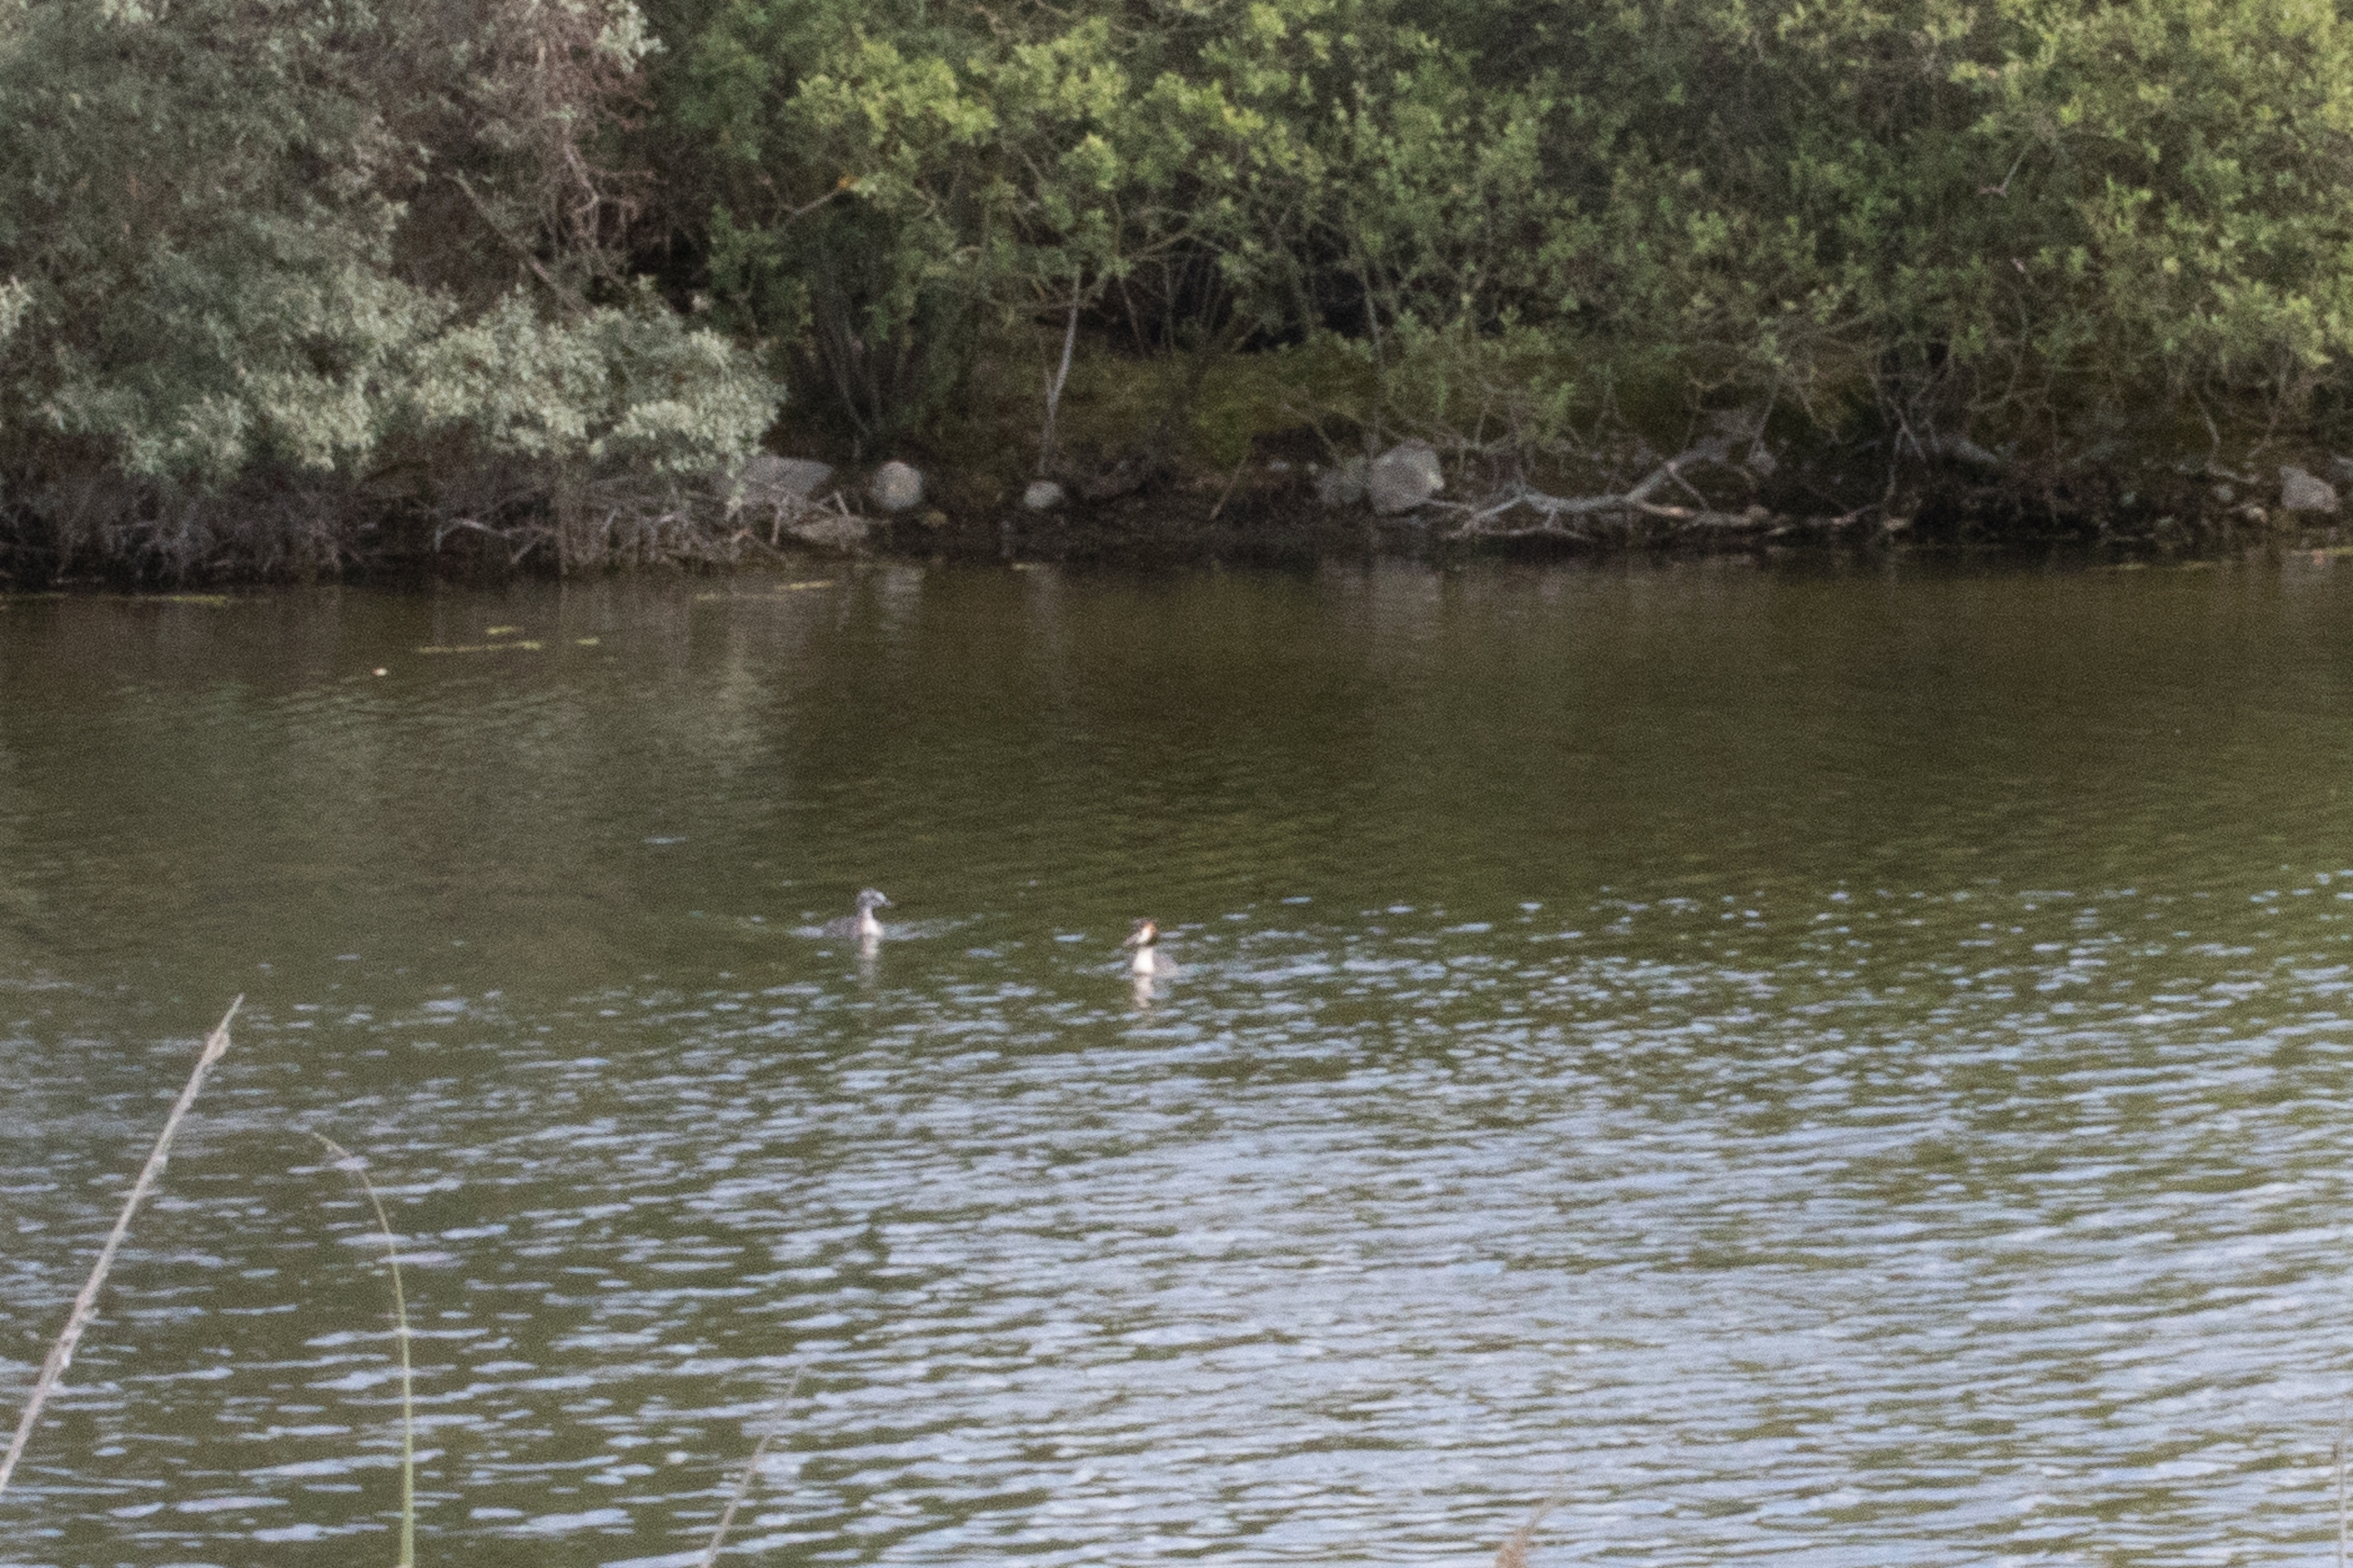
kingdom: Animalia
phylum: Chordata
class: Aves
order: Podicipediformes
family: Podicipedidae
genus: Podiceps
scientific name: Podiceps cristatus
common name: Toppet lappedykker
